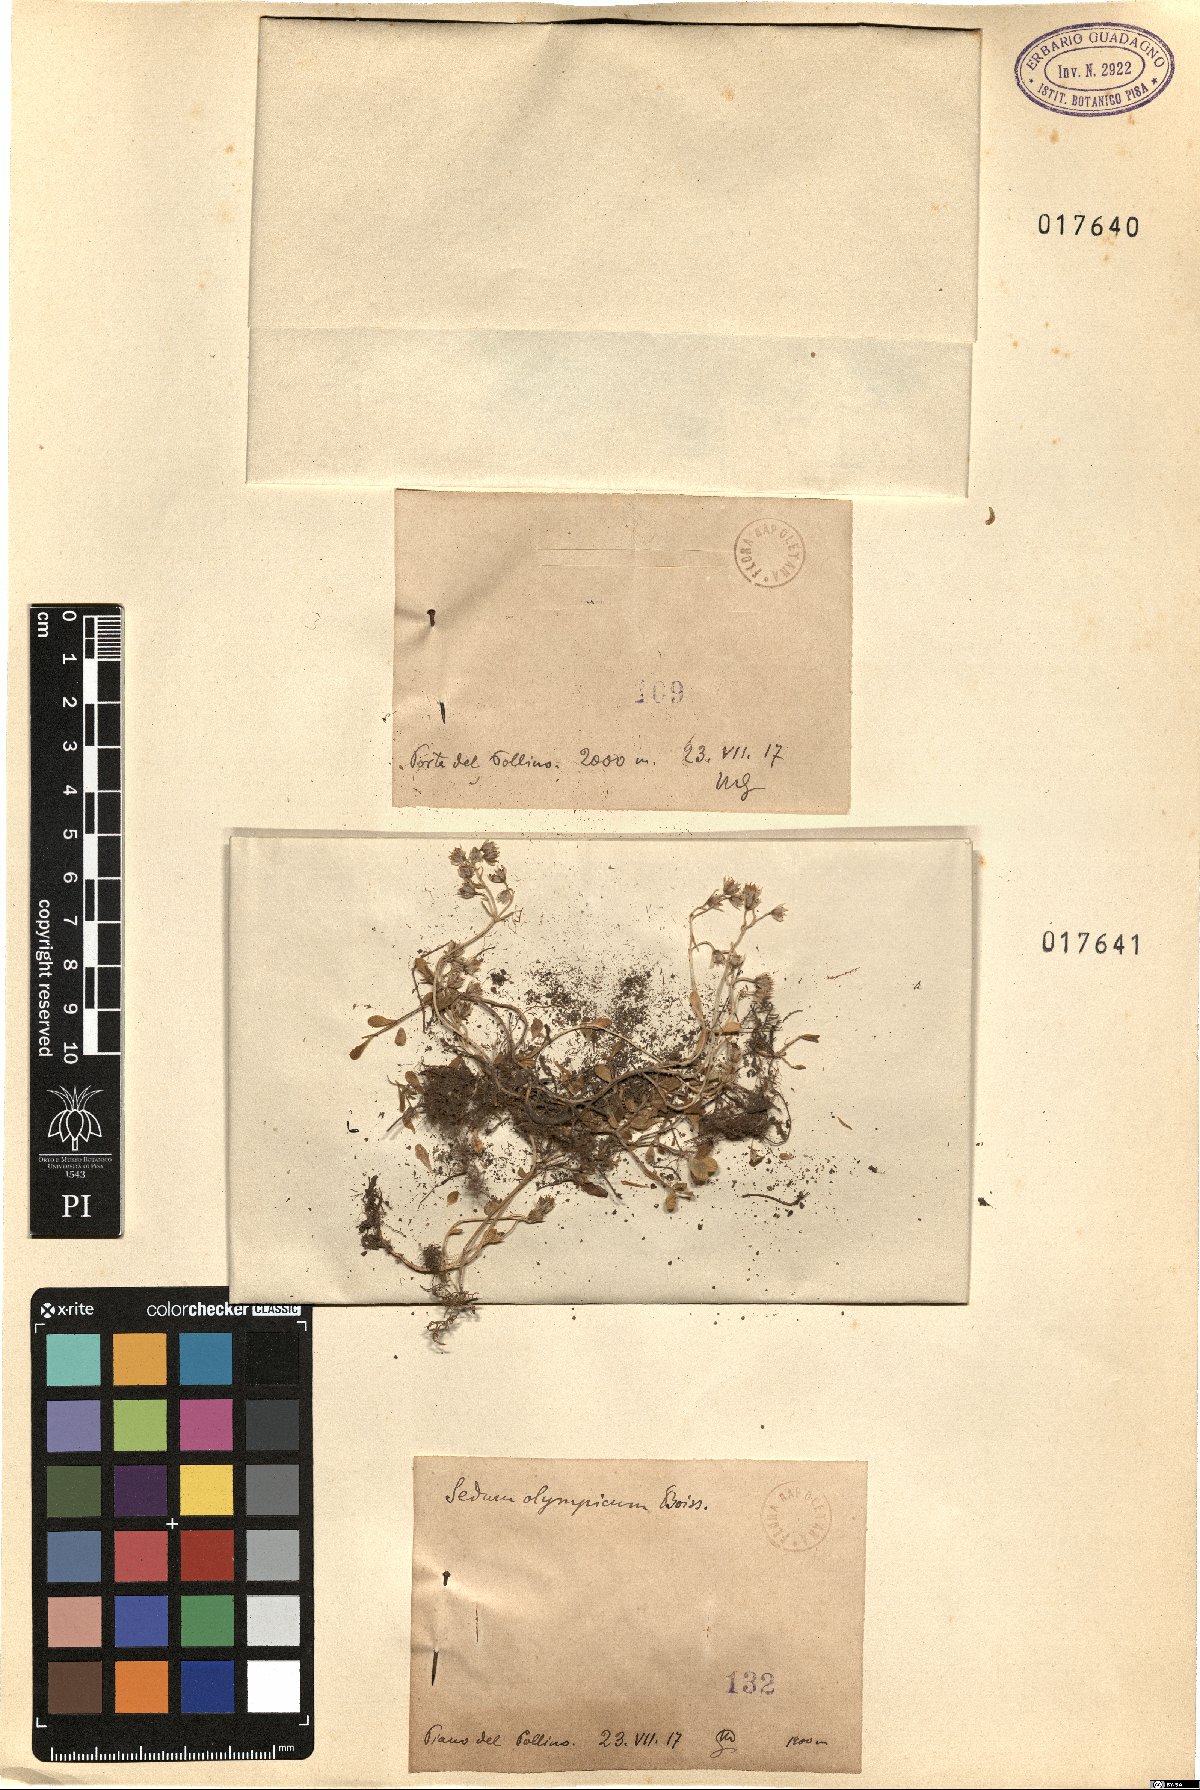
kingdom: Plantae
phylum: Tracheophyta
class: Magnoliopsida
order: Saxifragales
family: Crassulaceae
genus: Sedum
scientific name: Sedum magellense
